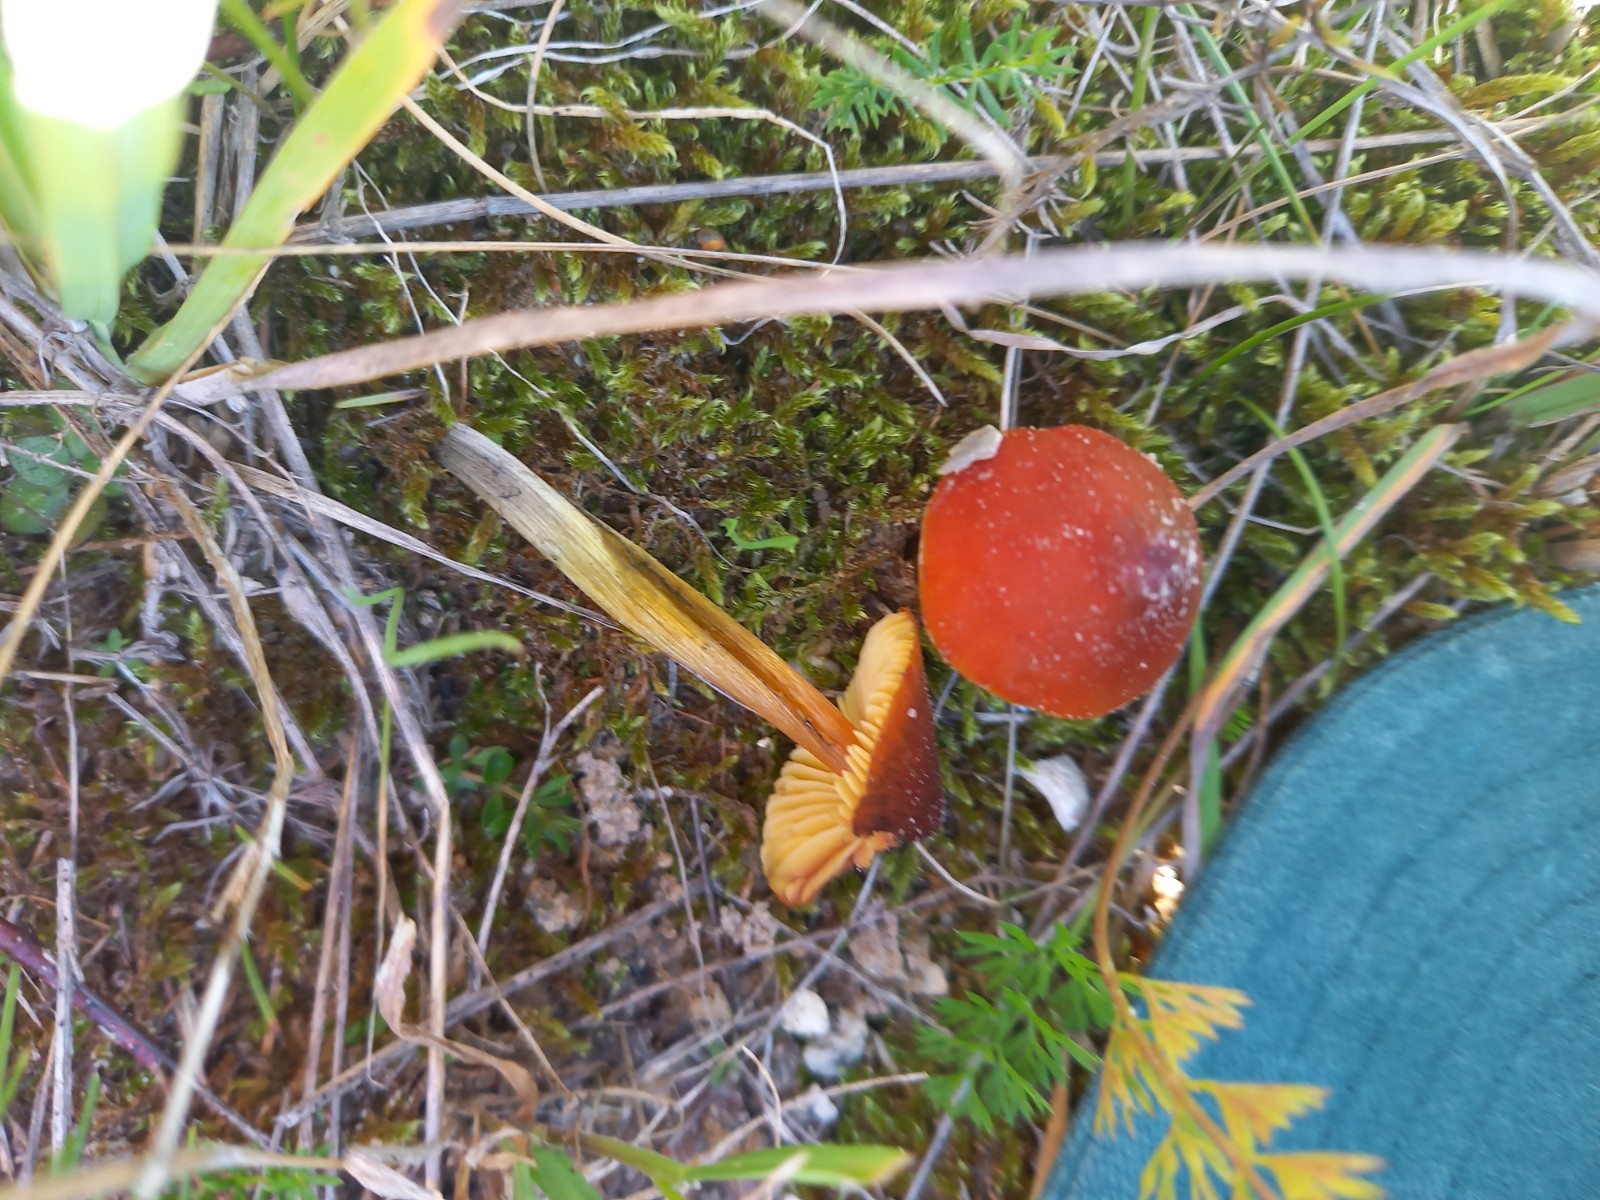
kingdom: Fungi
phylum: Basidiomycota
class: Agaricomycetes
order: Agaricales
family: Hygrophoraceae
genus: Hygrocybe
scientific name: Hygrocybe conica
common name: kegle-vokshat
